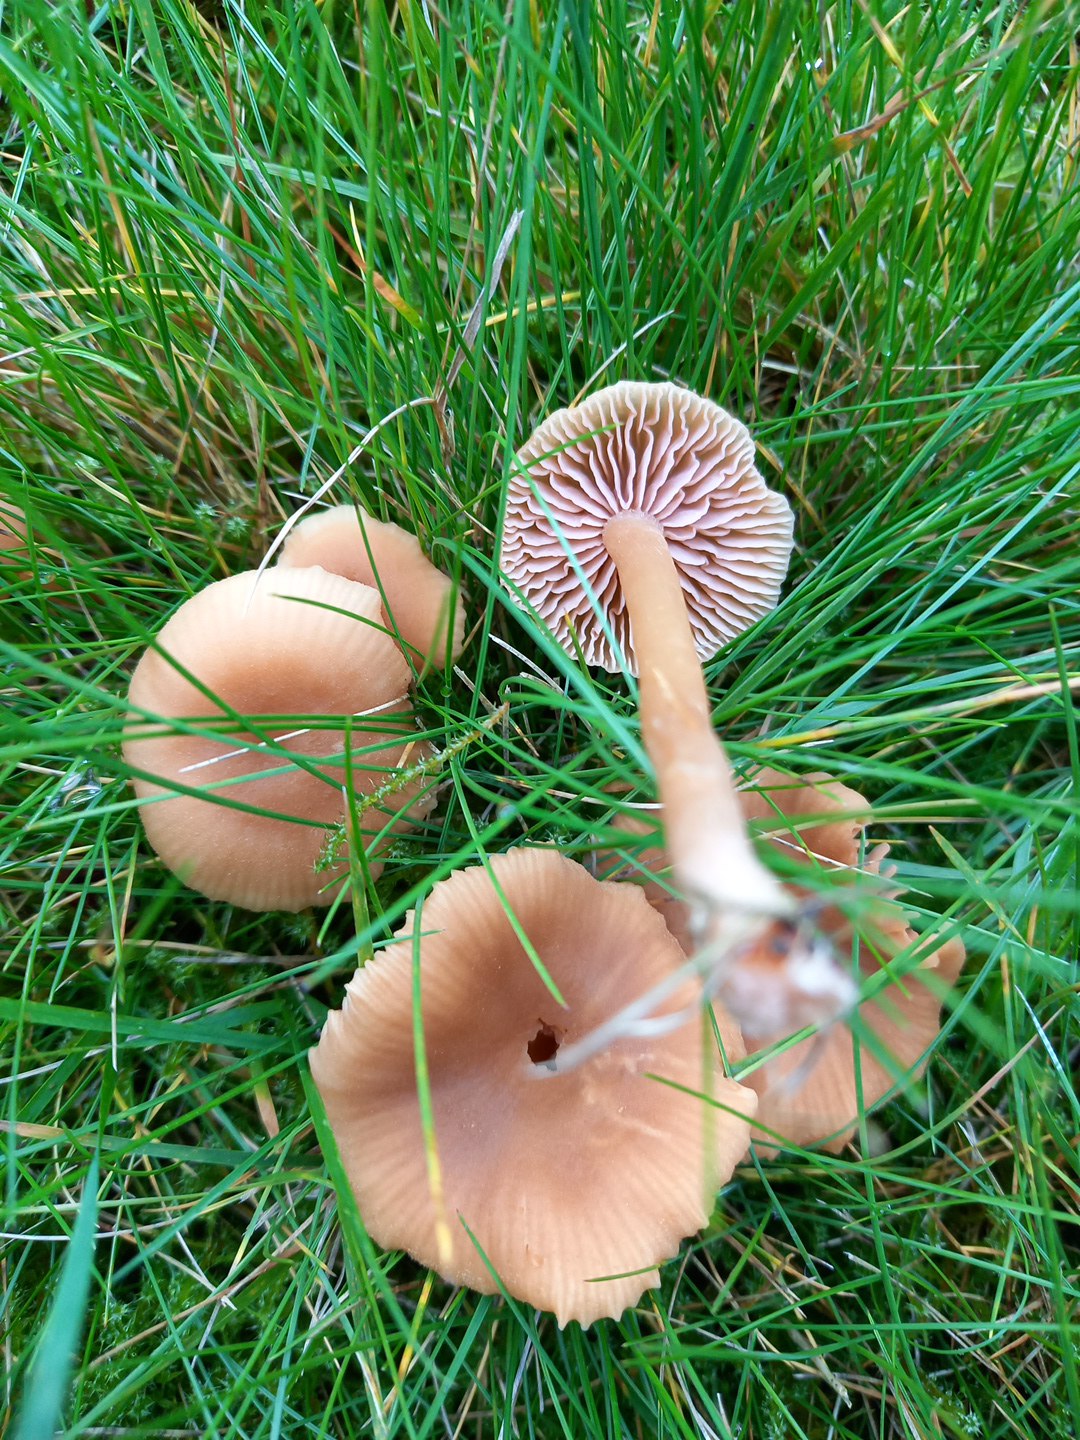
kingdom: Fungi
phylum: Basidiomycota
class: Agaricomycetes
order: Agaricales
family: Hydnangiaceae
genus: Laccaria
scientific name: Laccaria laccata
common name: rød ametysthat
